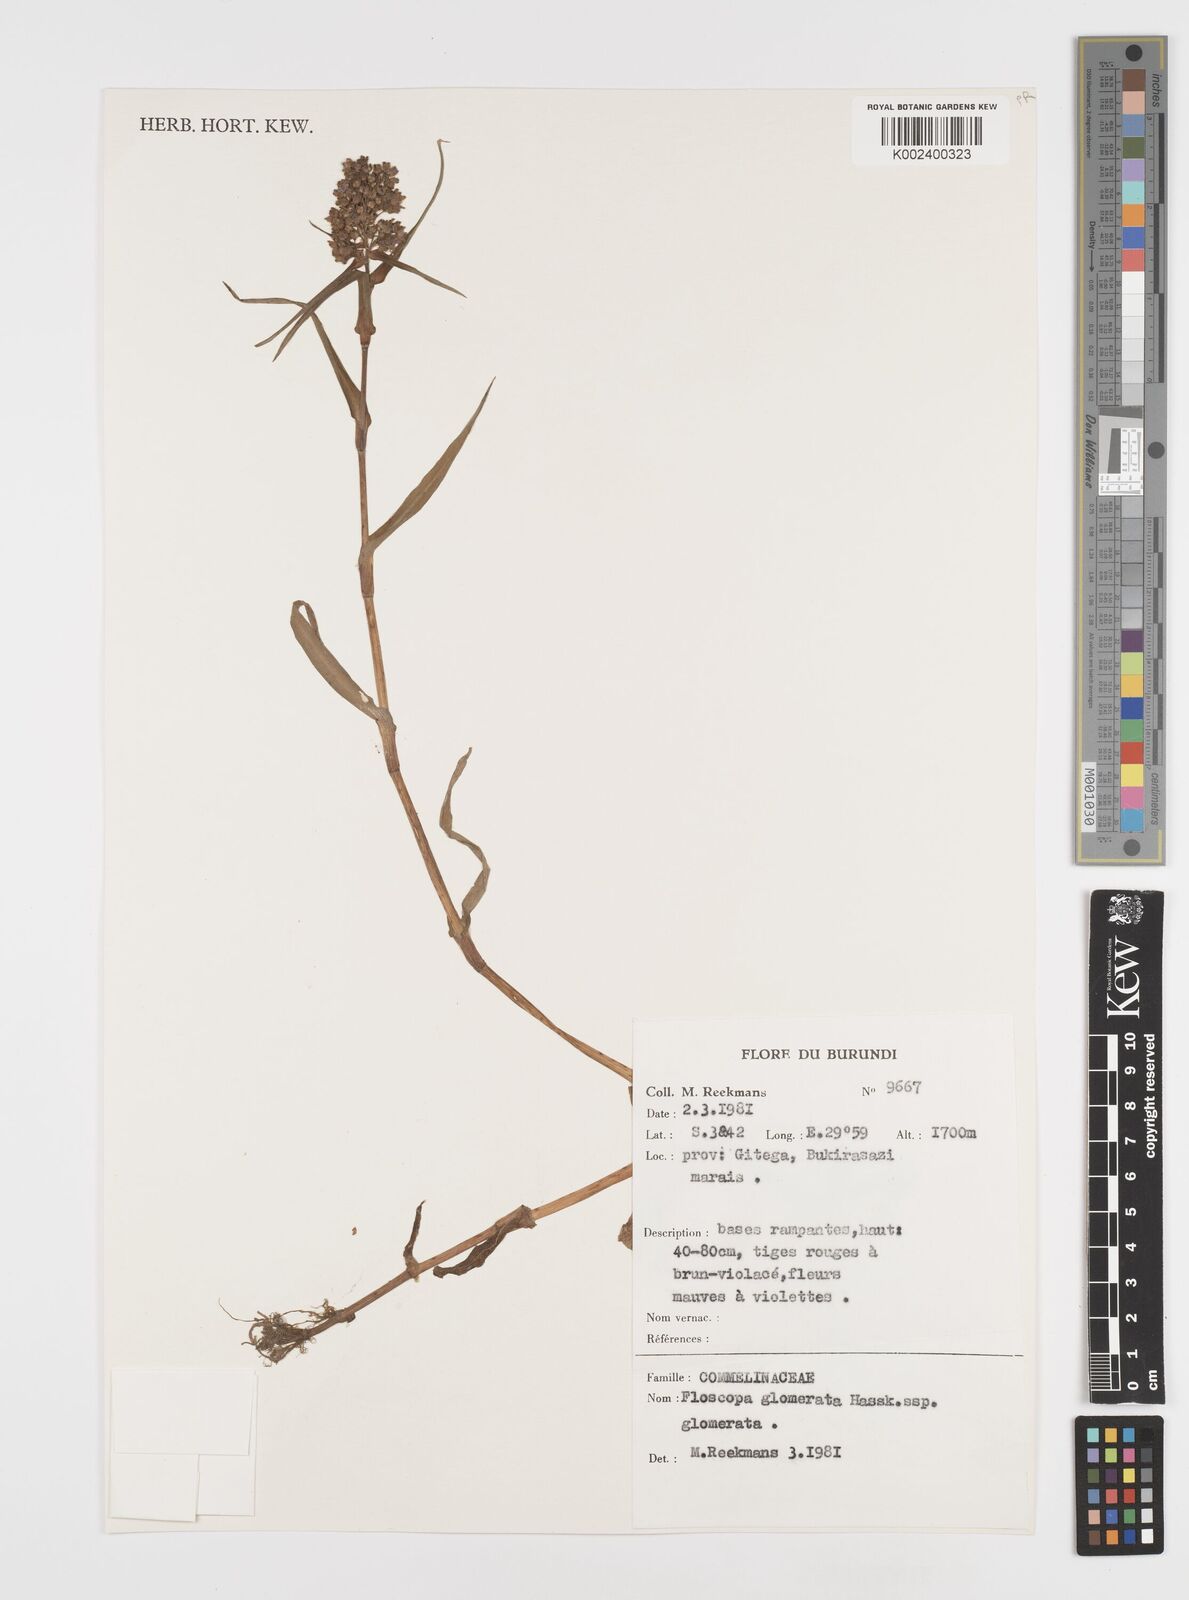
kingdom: Plantae
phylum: Tracheophyta
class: Liliopsida
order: Commelinales
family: Commelinaceae
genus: Floscopa
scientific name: Floscopa glomerata
